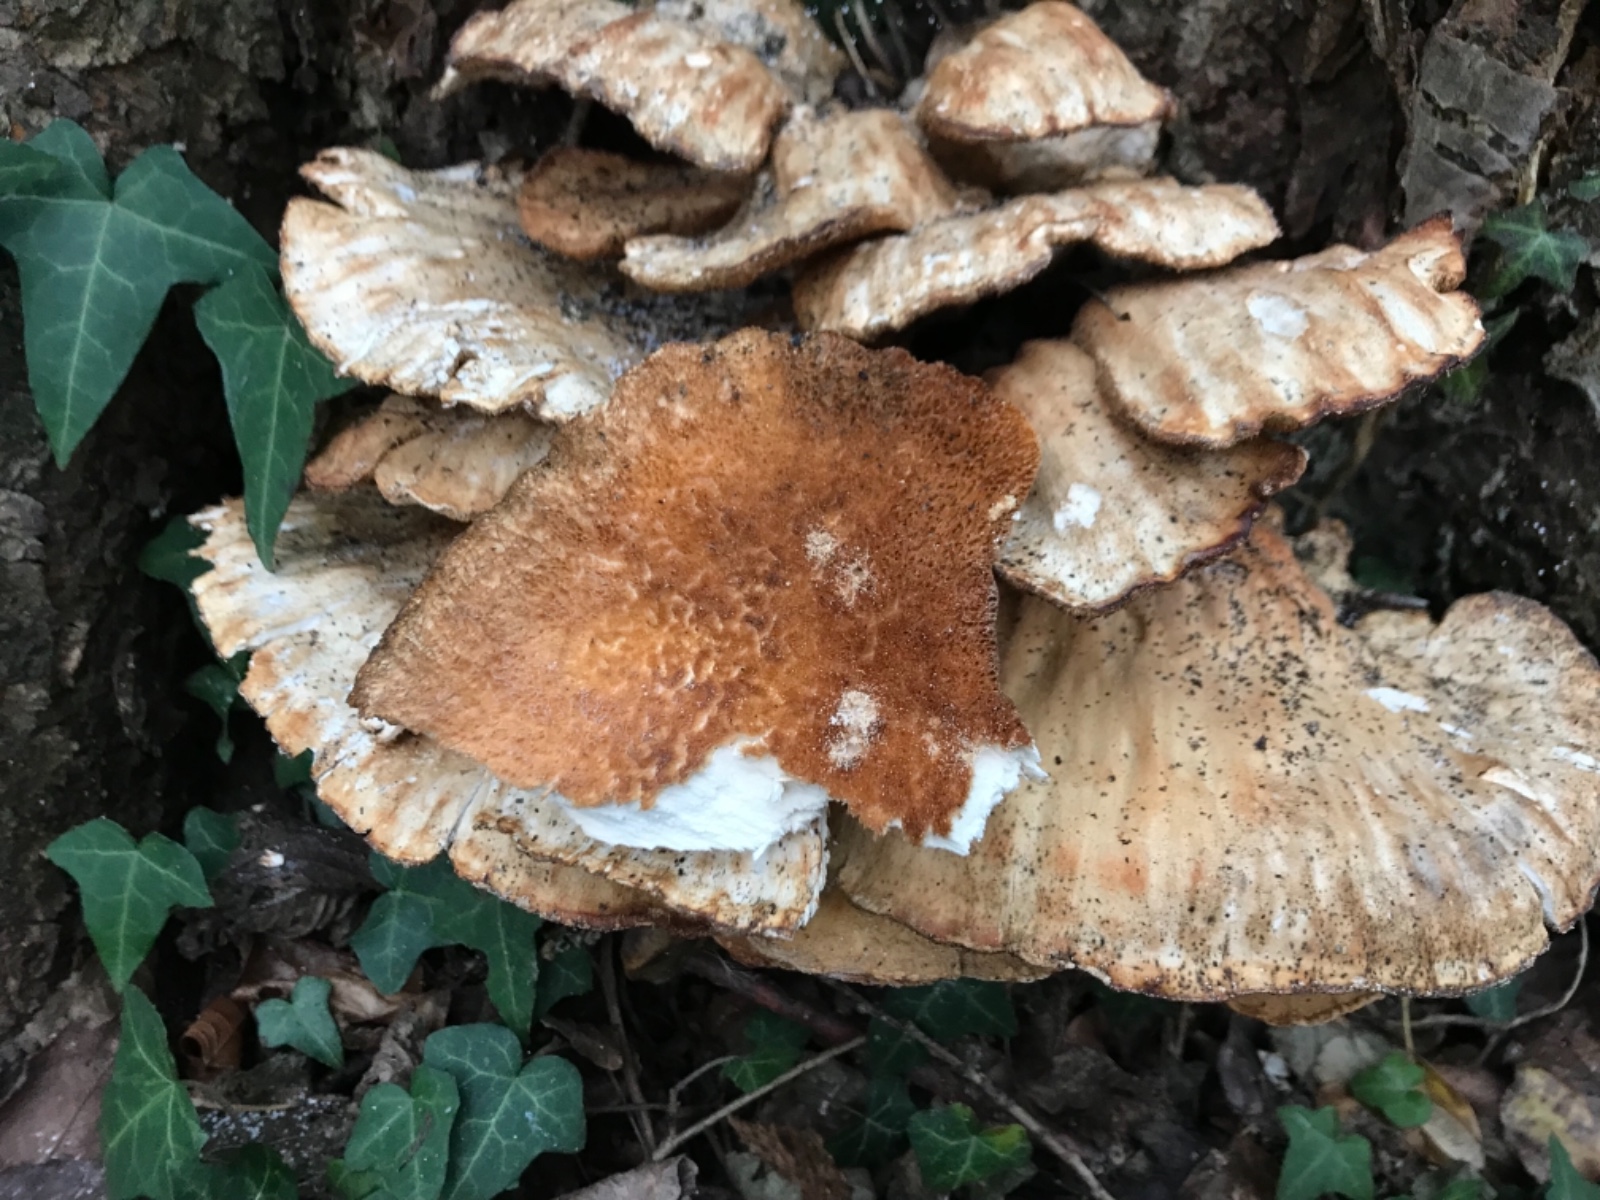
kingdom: Fungi
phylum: Basidiomycota
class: Agaricomycetes
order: Polyporales
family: Laetiporaceae
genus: Laetiporus
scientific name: Laetiporus sulphureus
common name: svovlporesvamp
